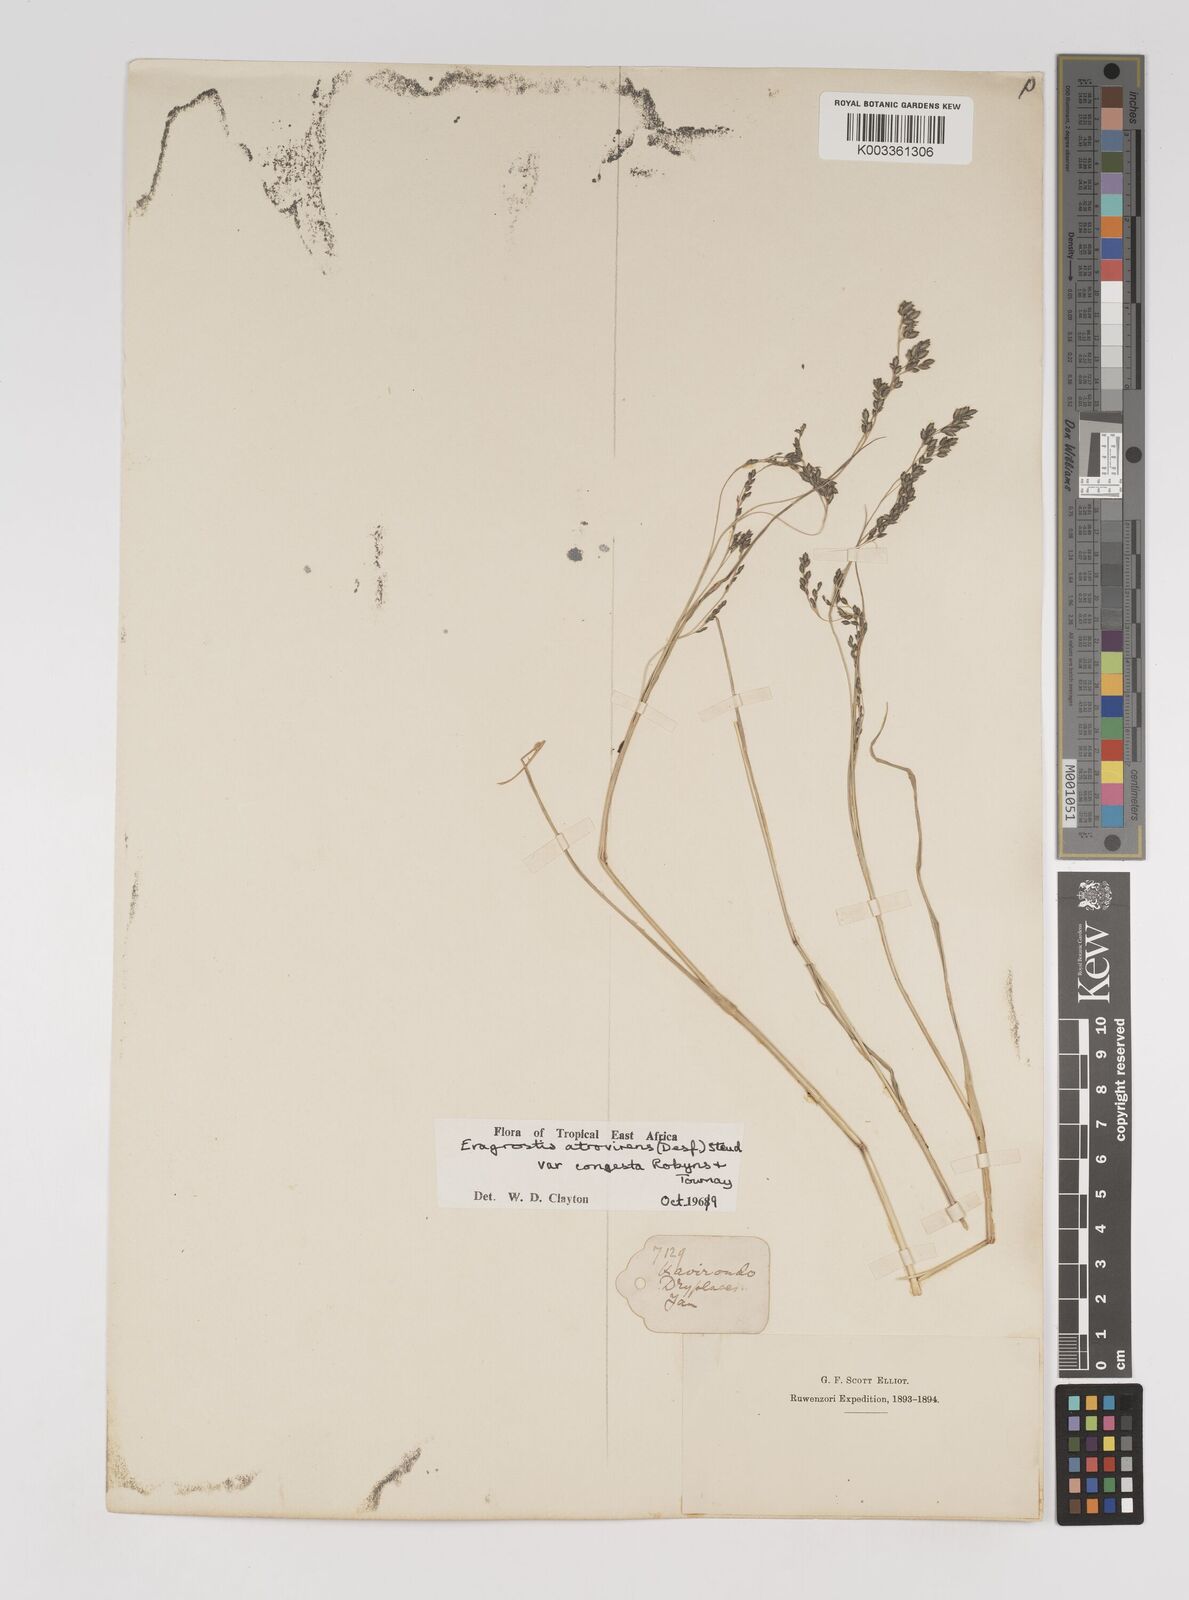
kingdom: Plantae
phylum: Tracheophyta
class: Liliopsida
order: Poales
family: Poaceae
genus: Eragrostis
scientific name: Eragrostis botryodes
